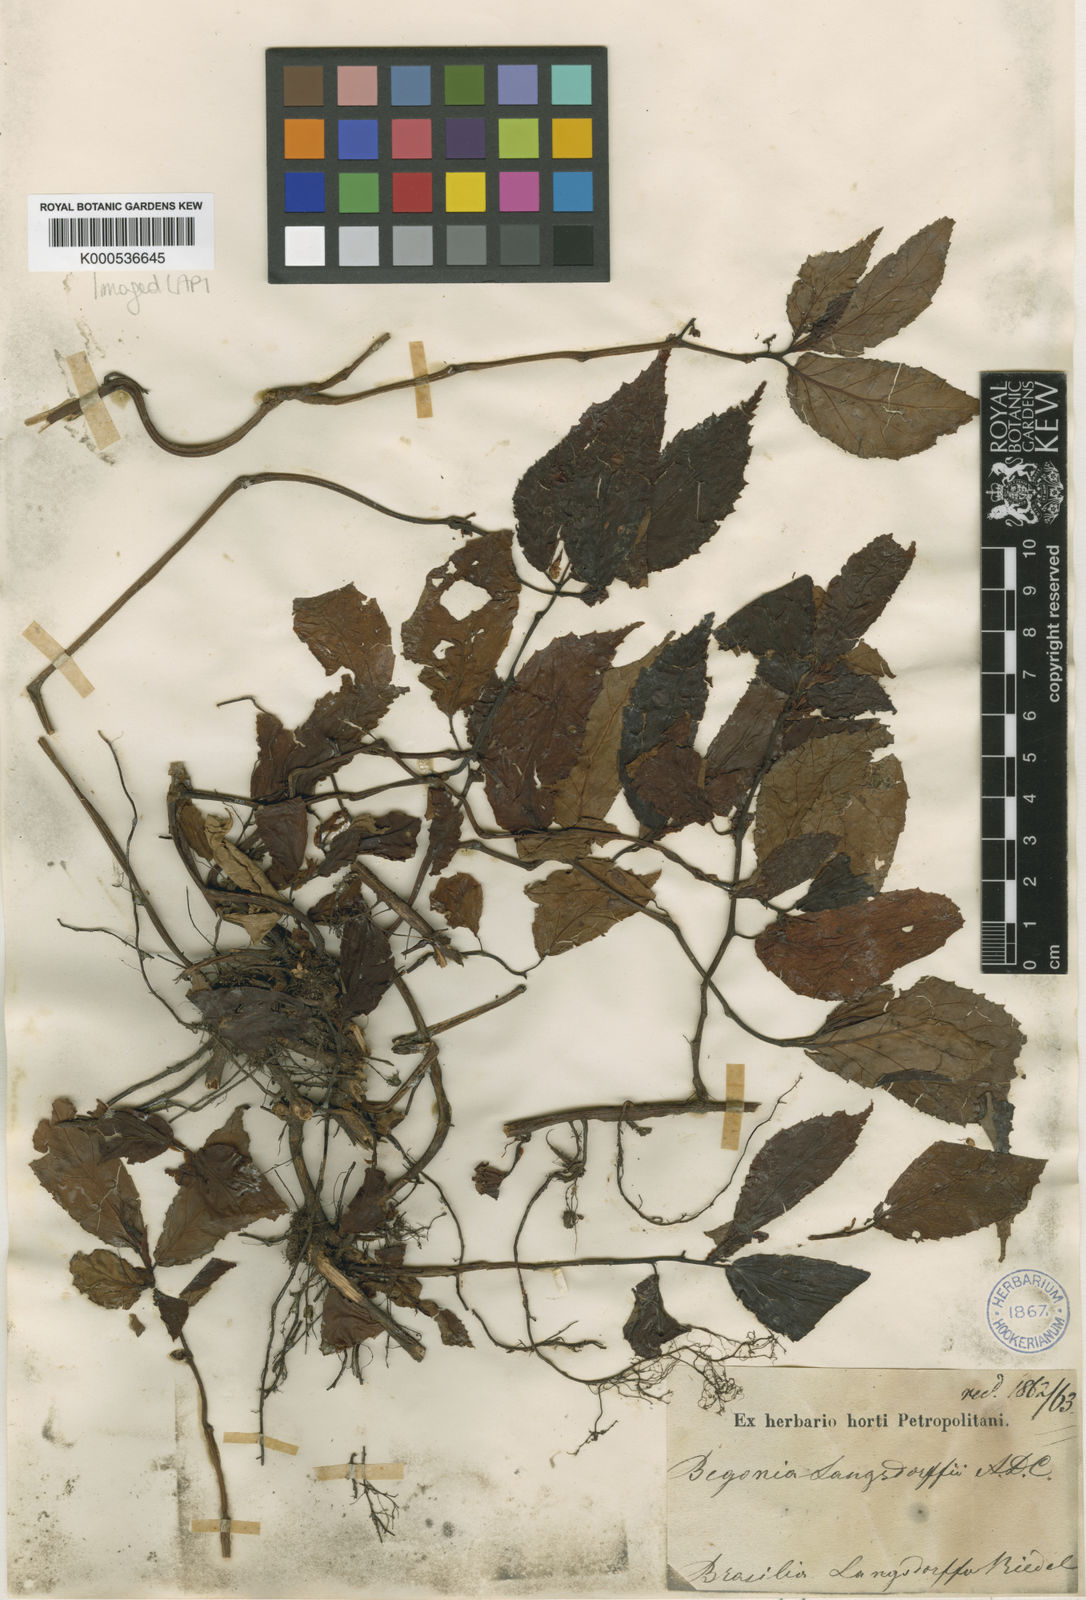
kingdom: Plantae
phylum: Tracheophyta
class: Magnoliopsida
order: Cucurbitales
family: Begoniaceae
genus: Begonia
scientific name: Begonia bidentata
